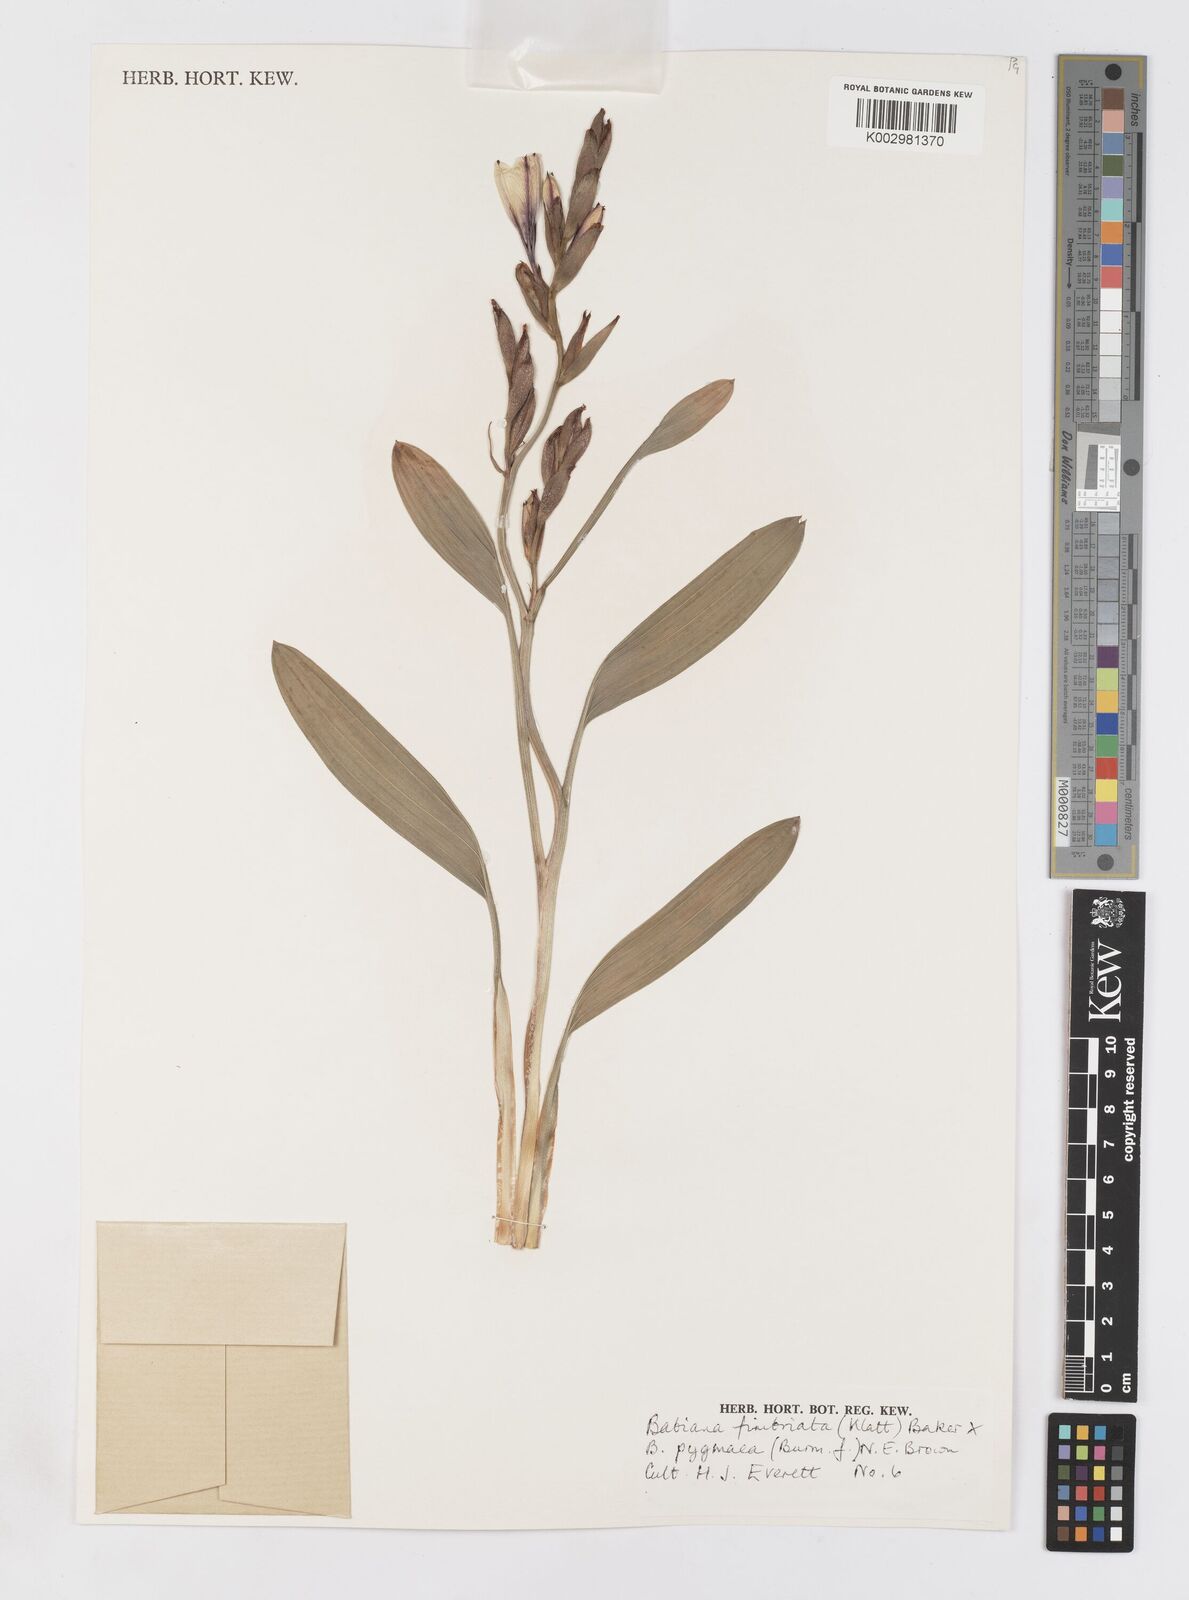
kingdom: Plantae
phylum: Tracheophyta
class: Liliopsida
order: Asparagales
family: Iridaceae
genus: Babiana
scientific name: Babiana fimbriata
